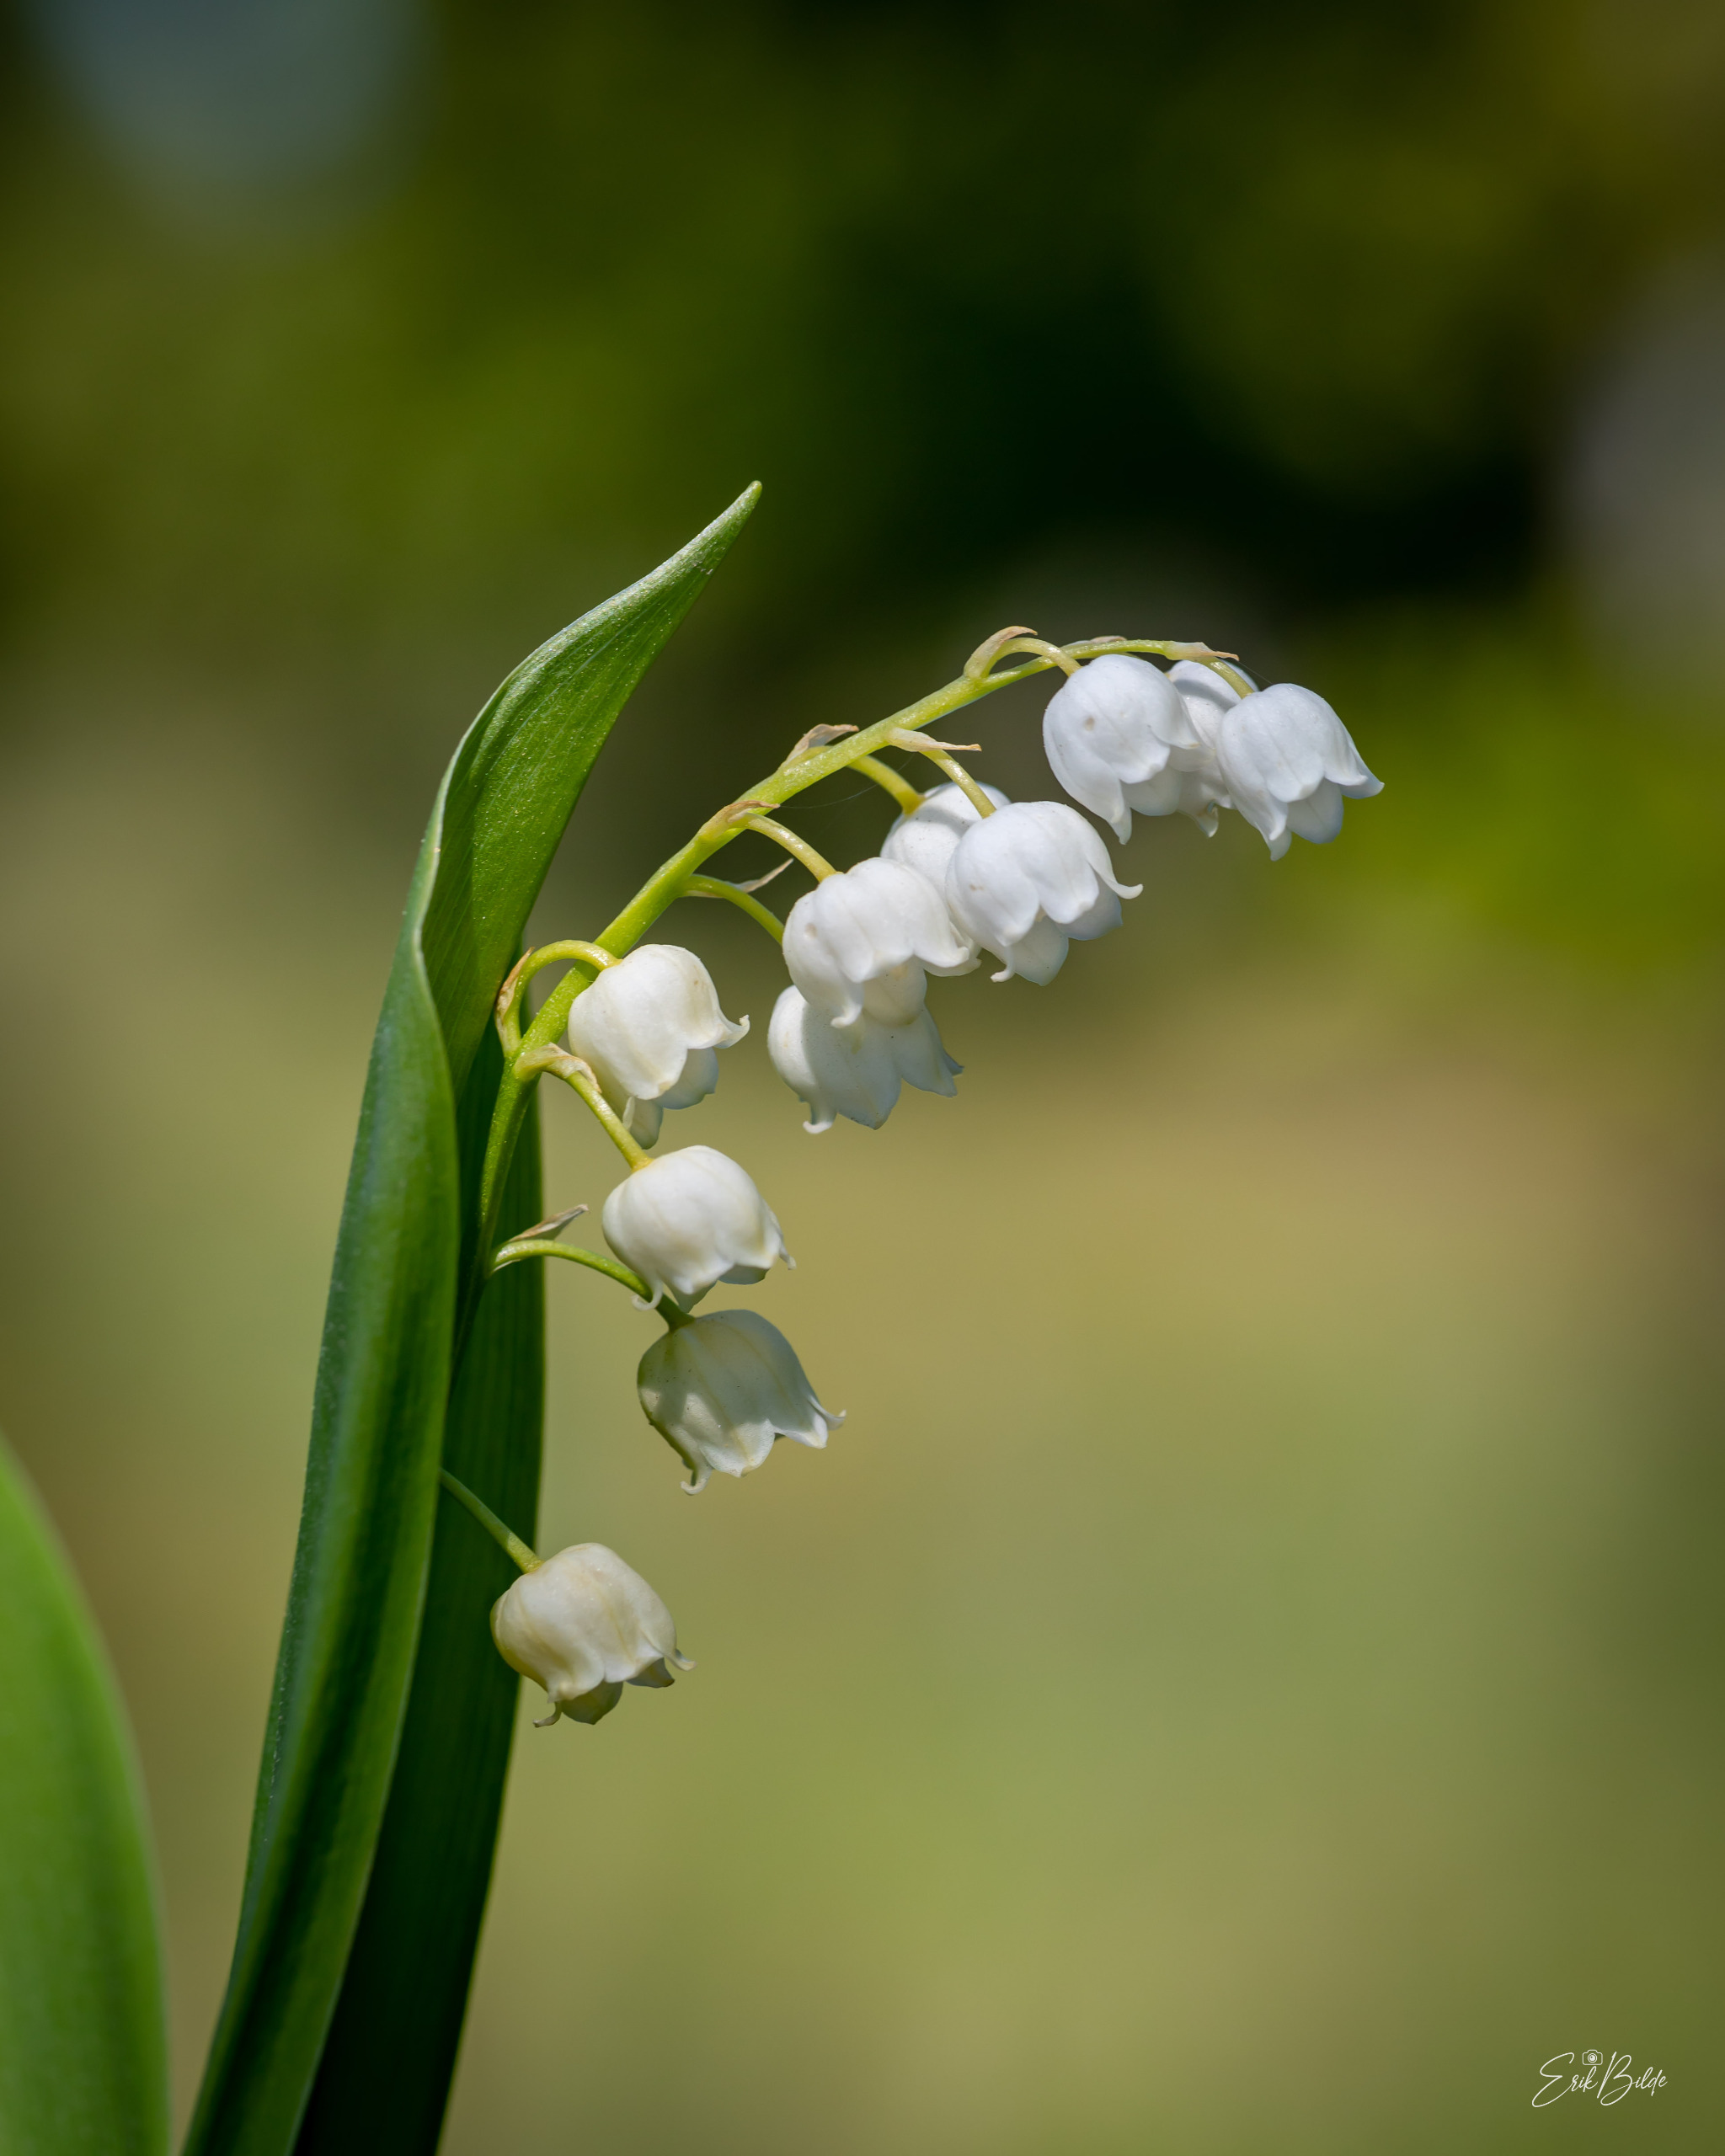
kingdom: Plantae
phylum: Tracheophyta
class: Liliopsida
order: Asparagales
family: Asparagaceae
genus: Convallaria
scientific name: Convallaria majalis
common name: Liljekonval
